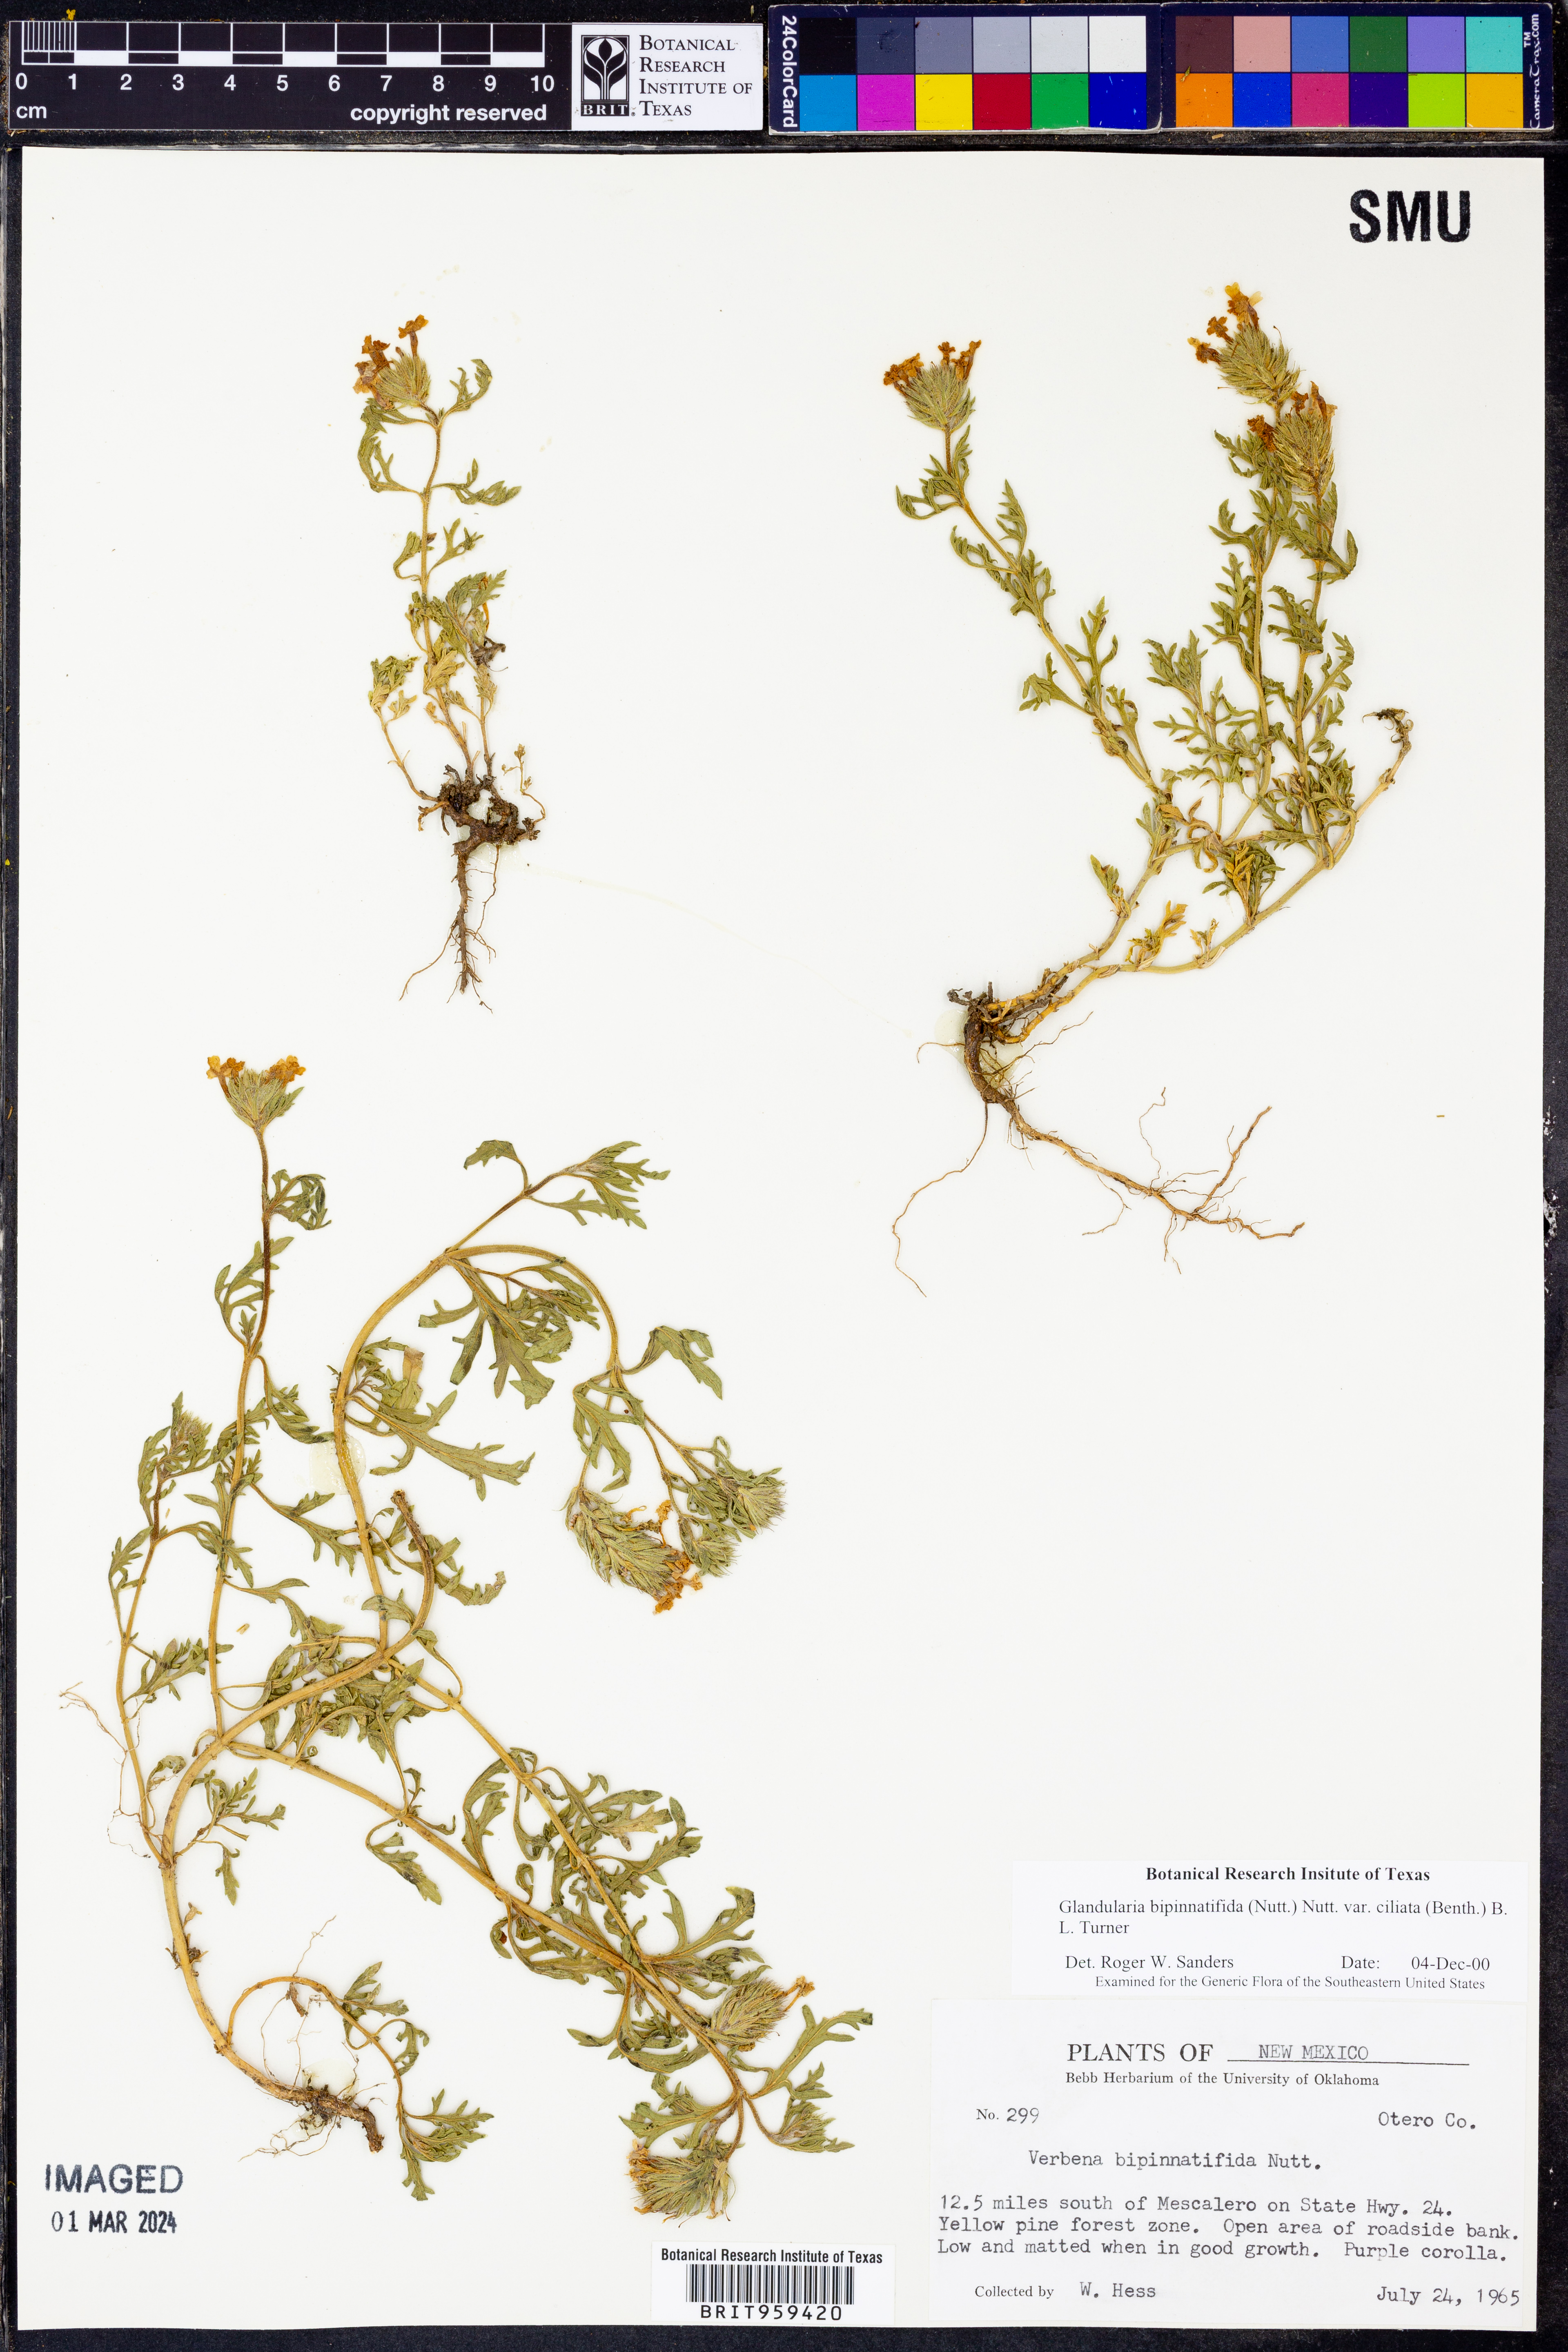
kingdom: Plantae
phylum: Tracheophyta
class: Magnoliopsida
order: Lamiales
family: Verbenaceae
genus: Verbena
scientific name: Verbena bipinnatifida
